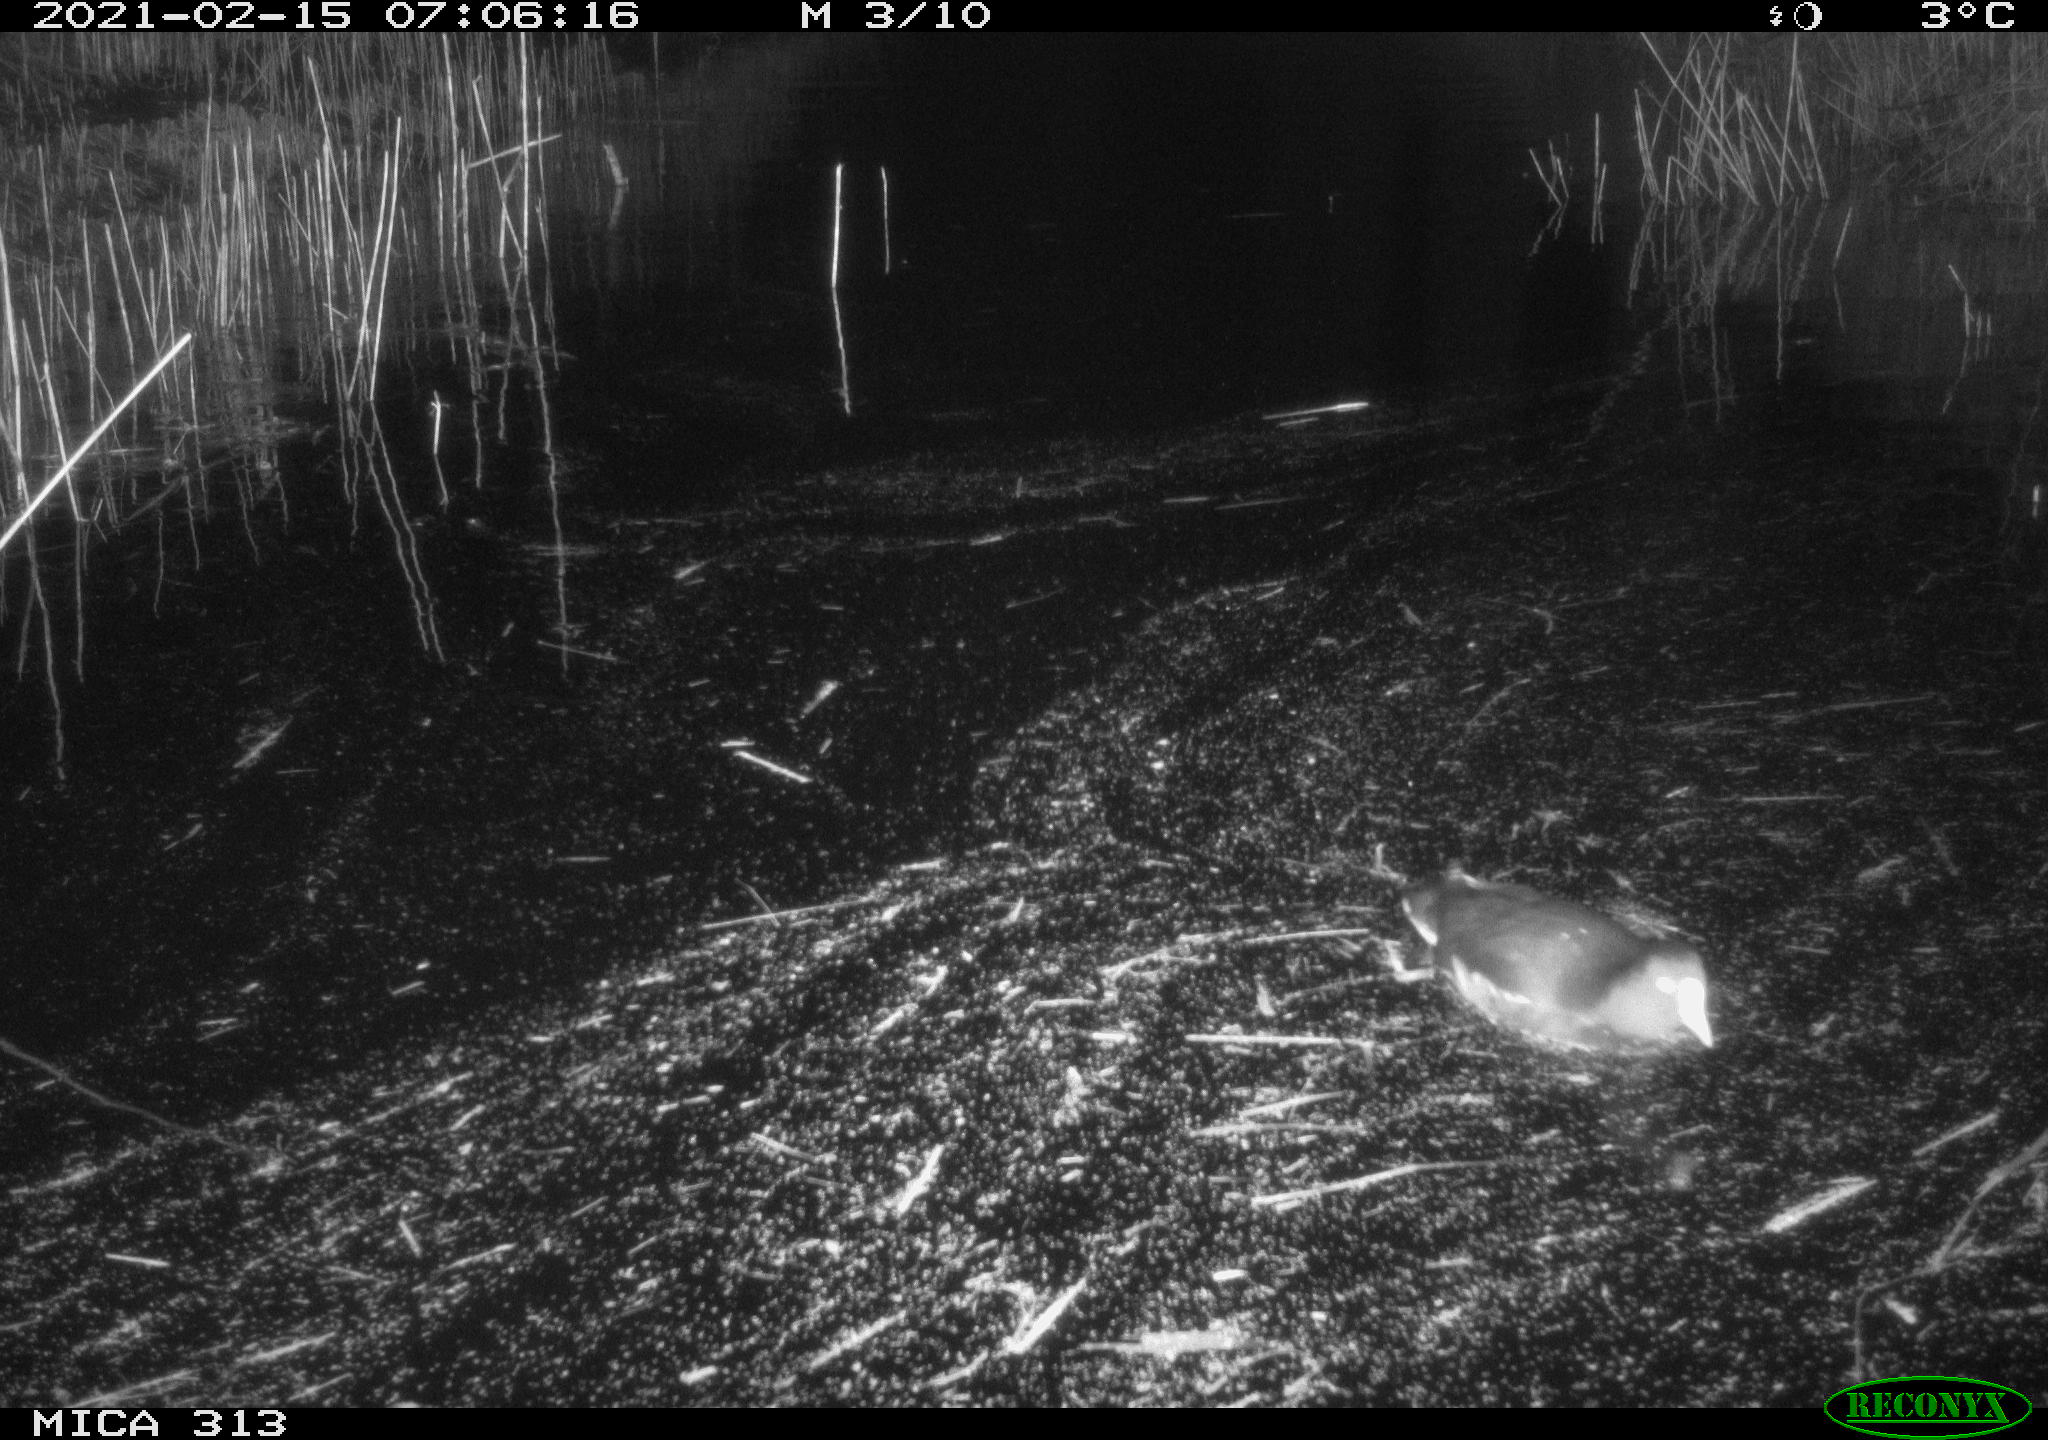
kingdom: Animalia
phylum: Chordata
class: Aves
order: Gruiformes
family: Rallidae
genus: Gallinula
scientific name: Gallinula chloropus
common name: Common moorhen
